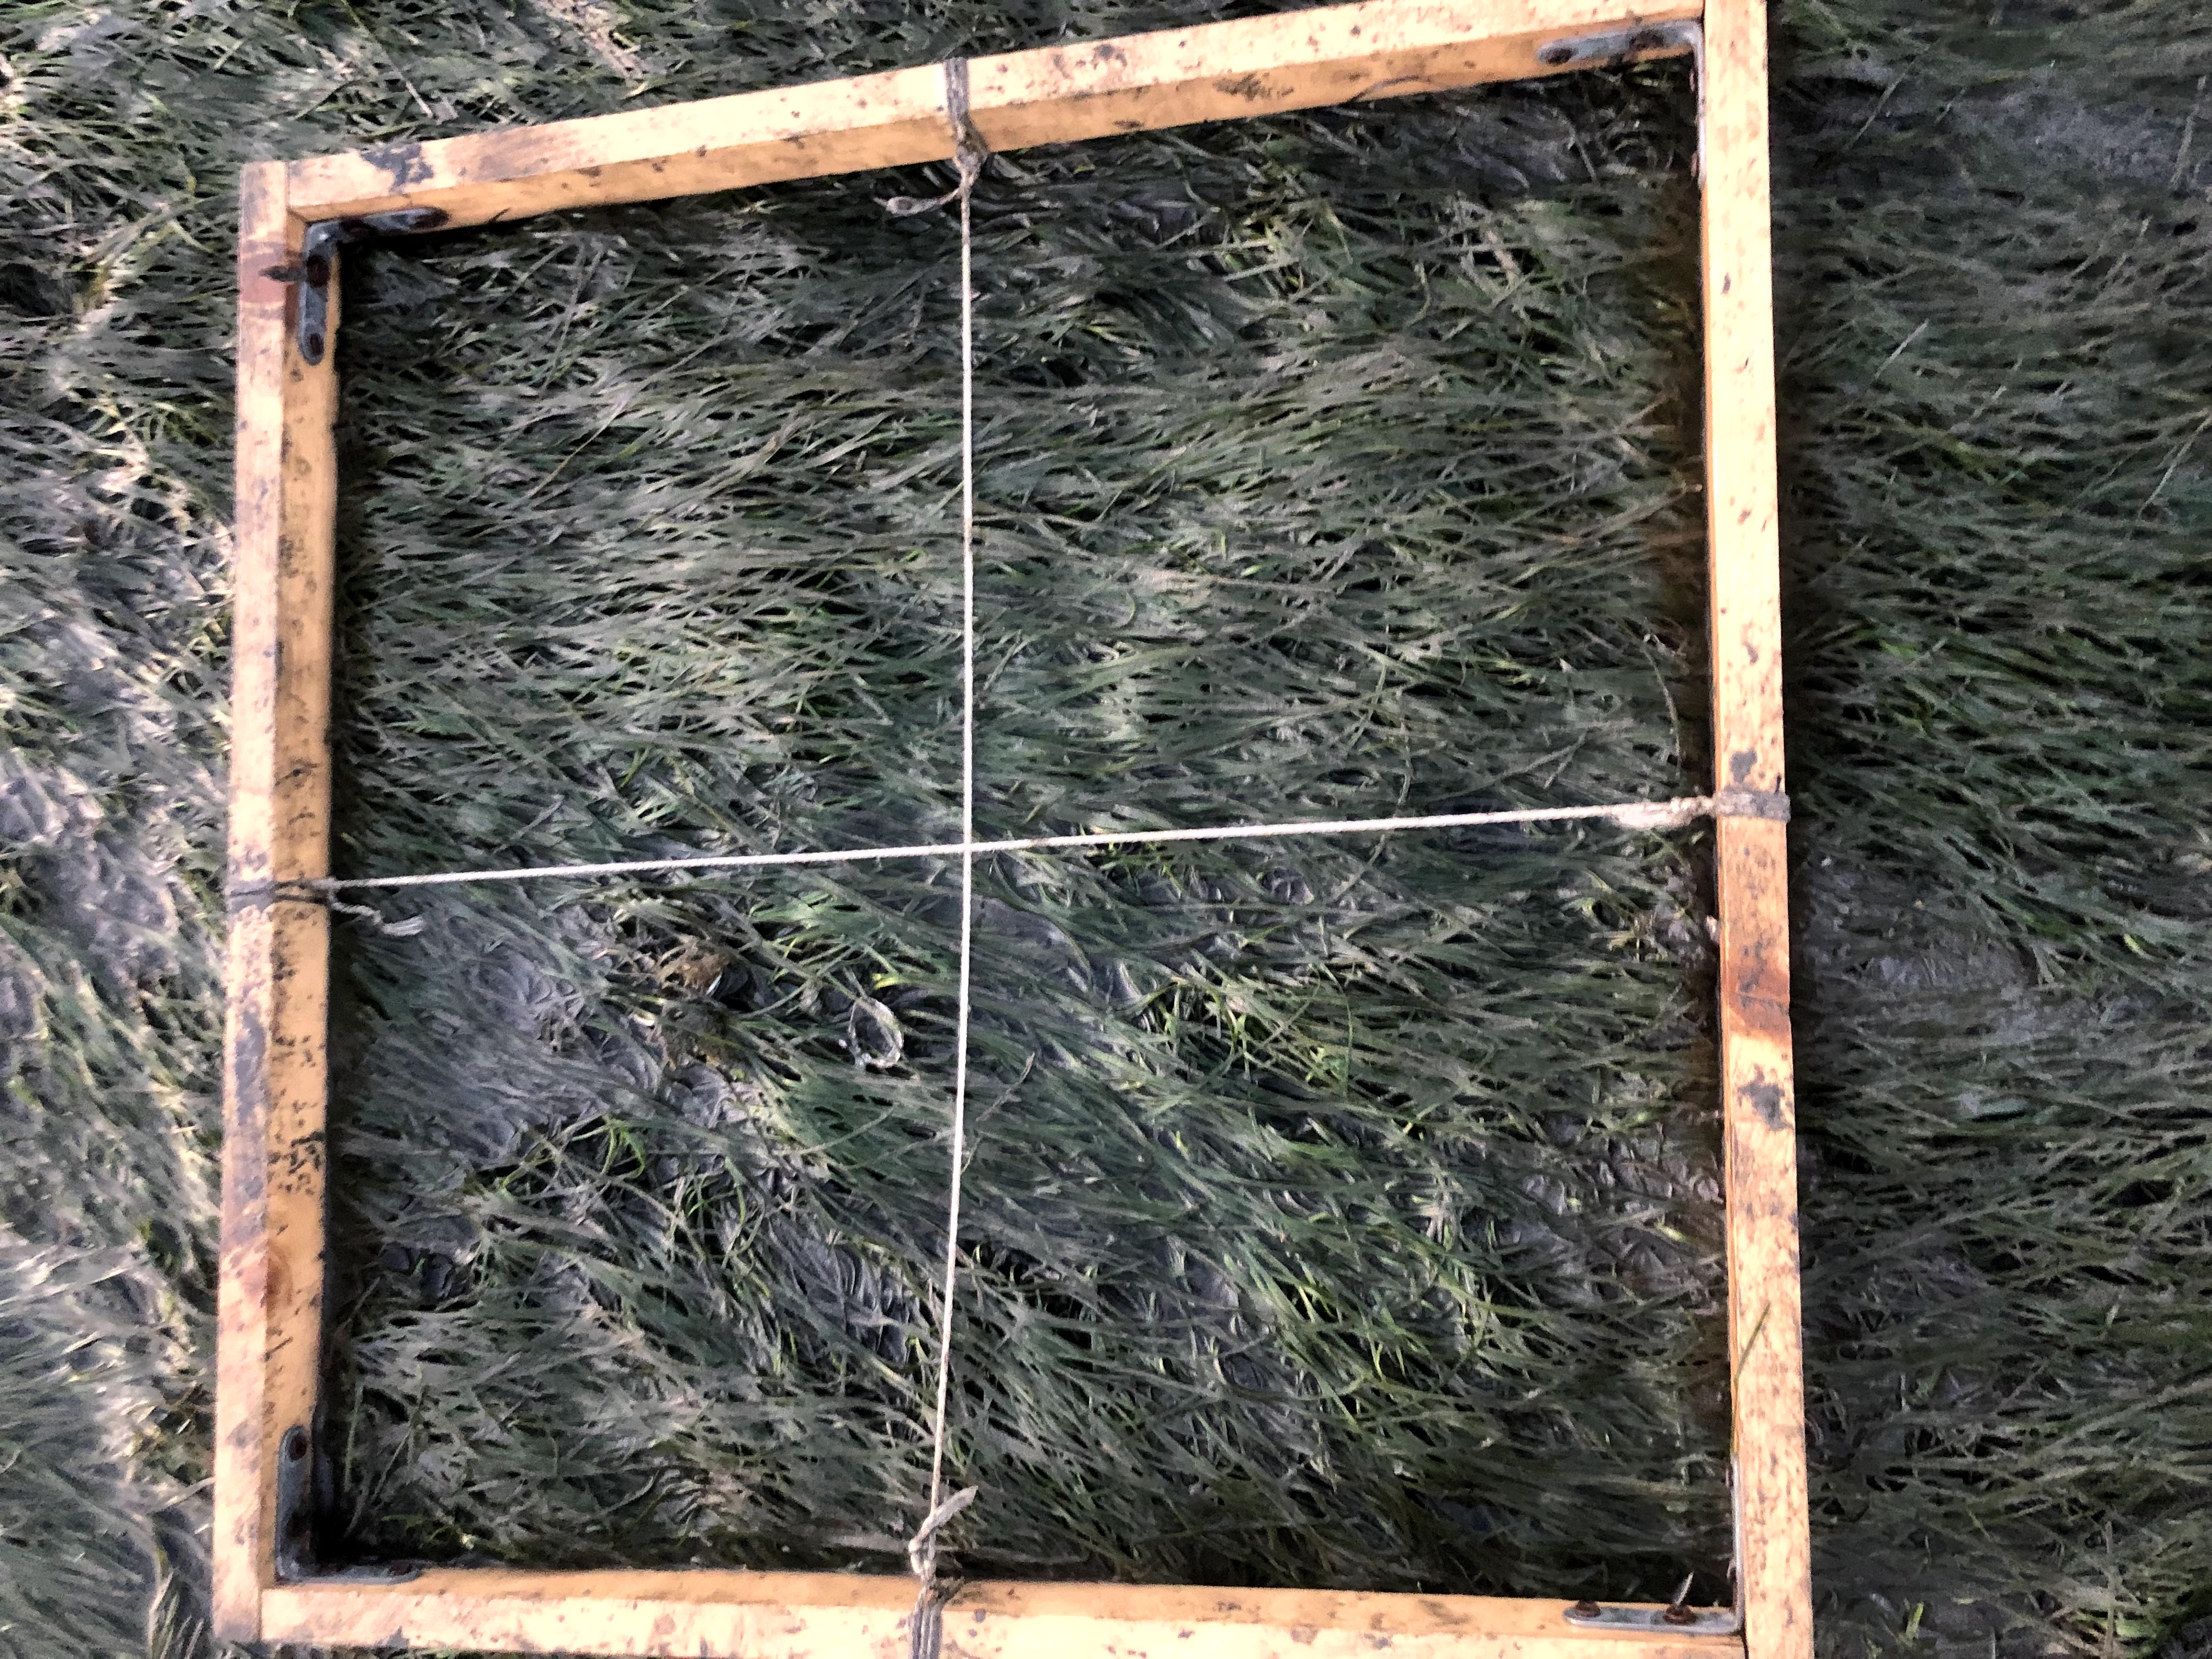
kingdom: Plantae
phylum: Tracheophyta
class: Liliopsida
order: Alismatales
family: Zosteraceae
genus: Zostera
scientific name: Zostera noltii
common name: Dwarf eelgrass
